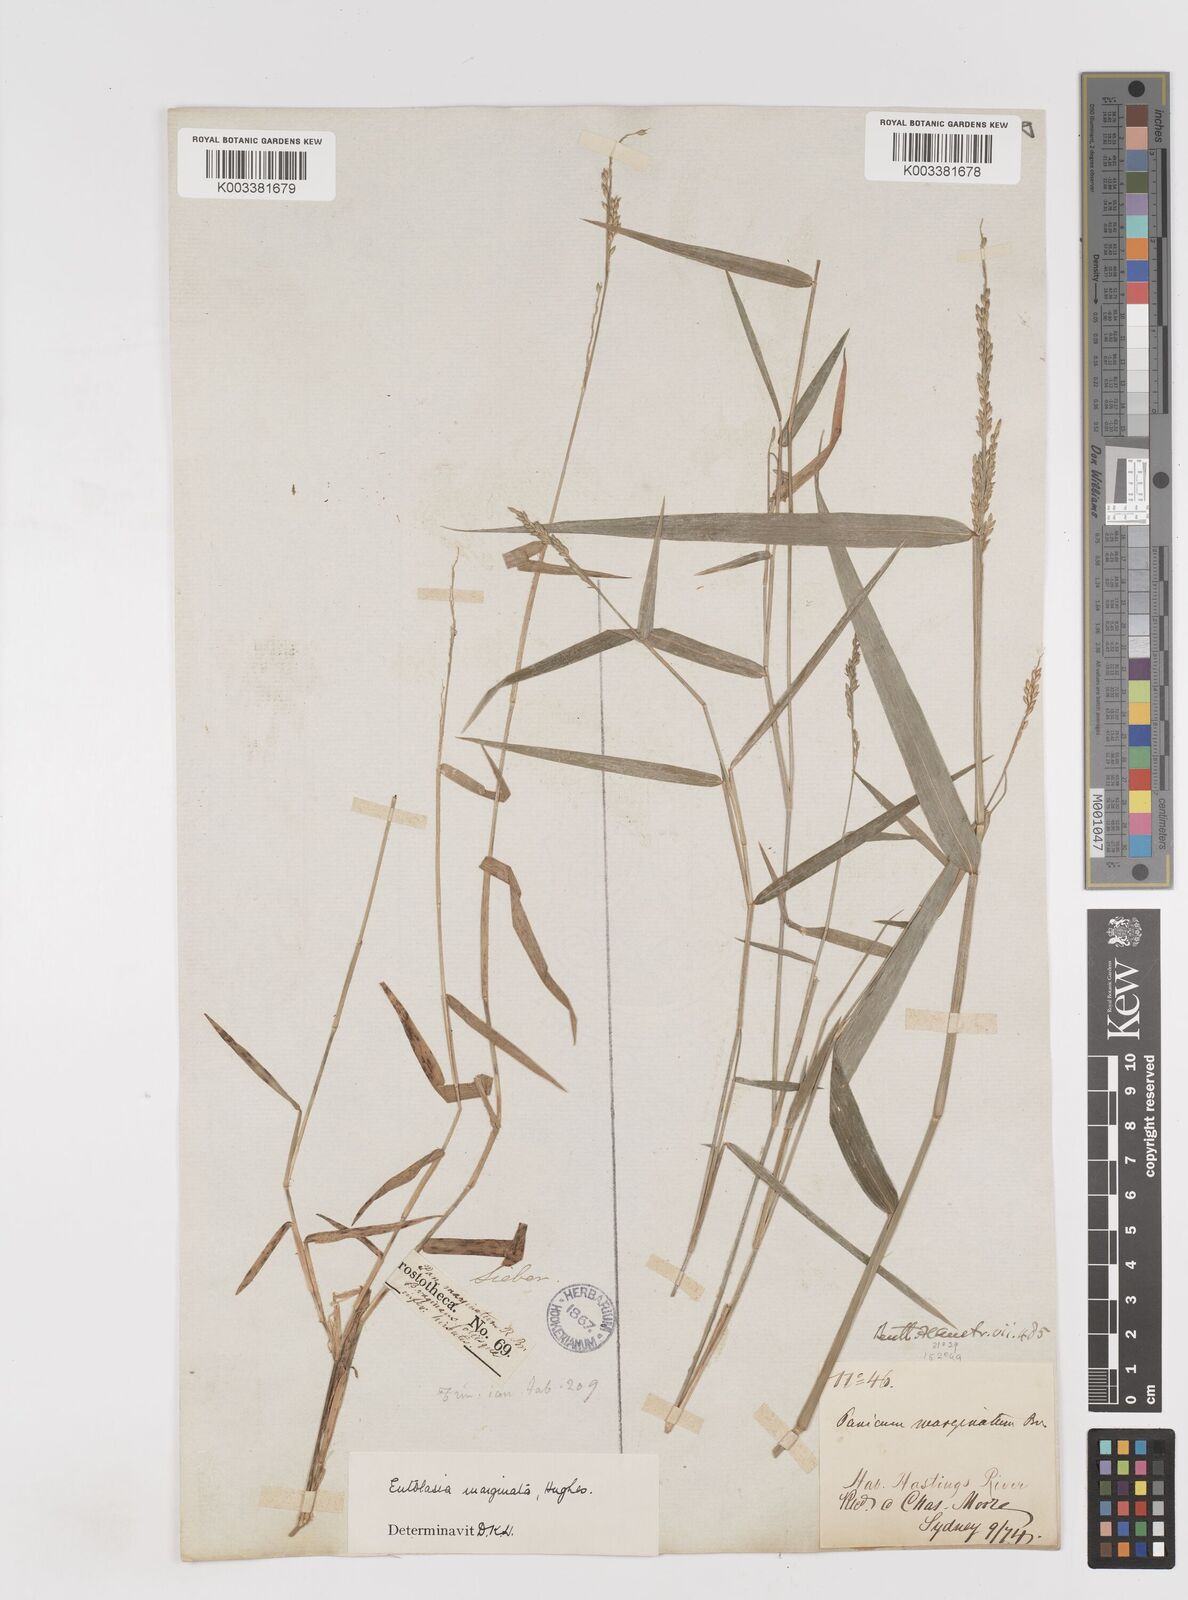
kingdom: Plantae
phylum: Tracheophyta
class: Liliopsida
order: Poales
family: Poaceae
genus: Entolasia
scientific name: Entolasia marginata
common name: Australian panicgrass
